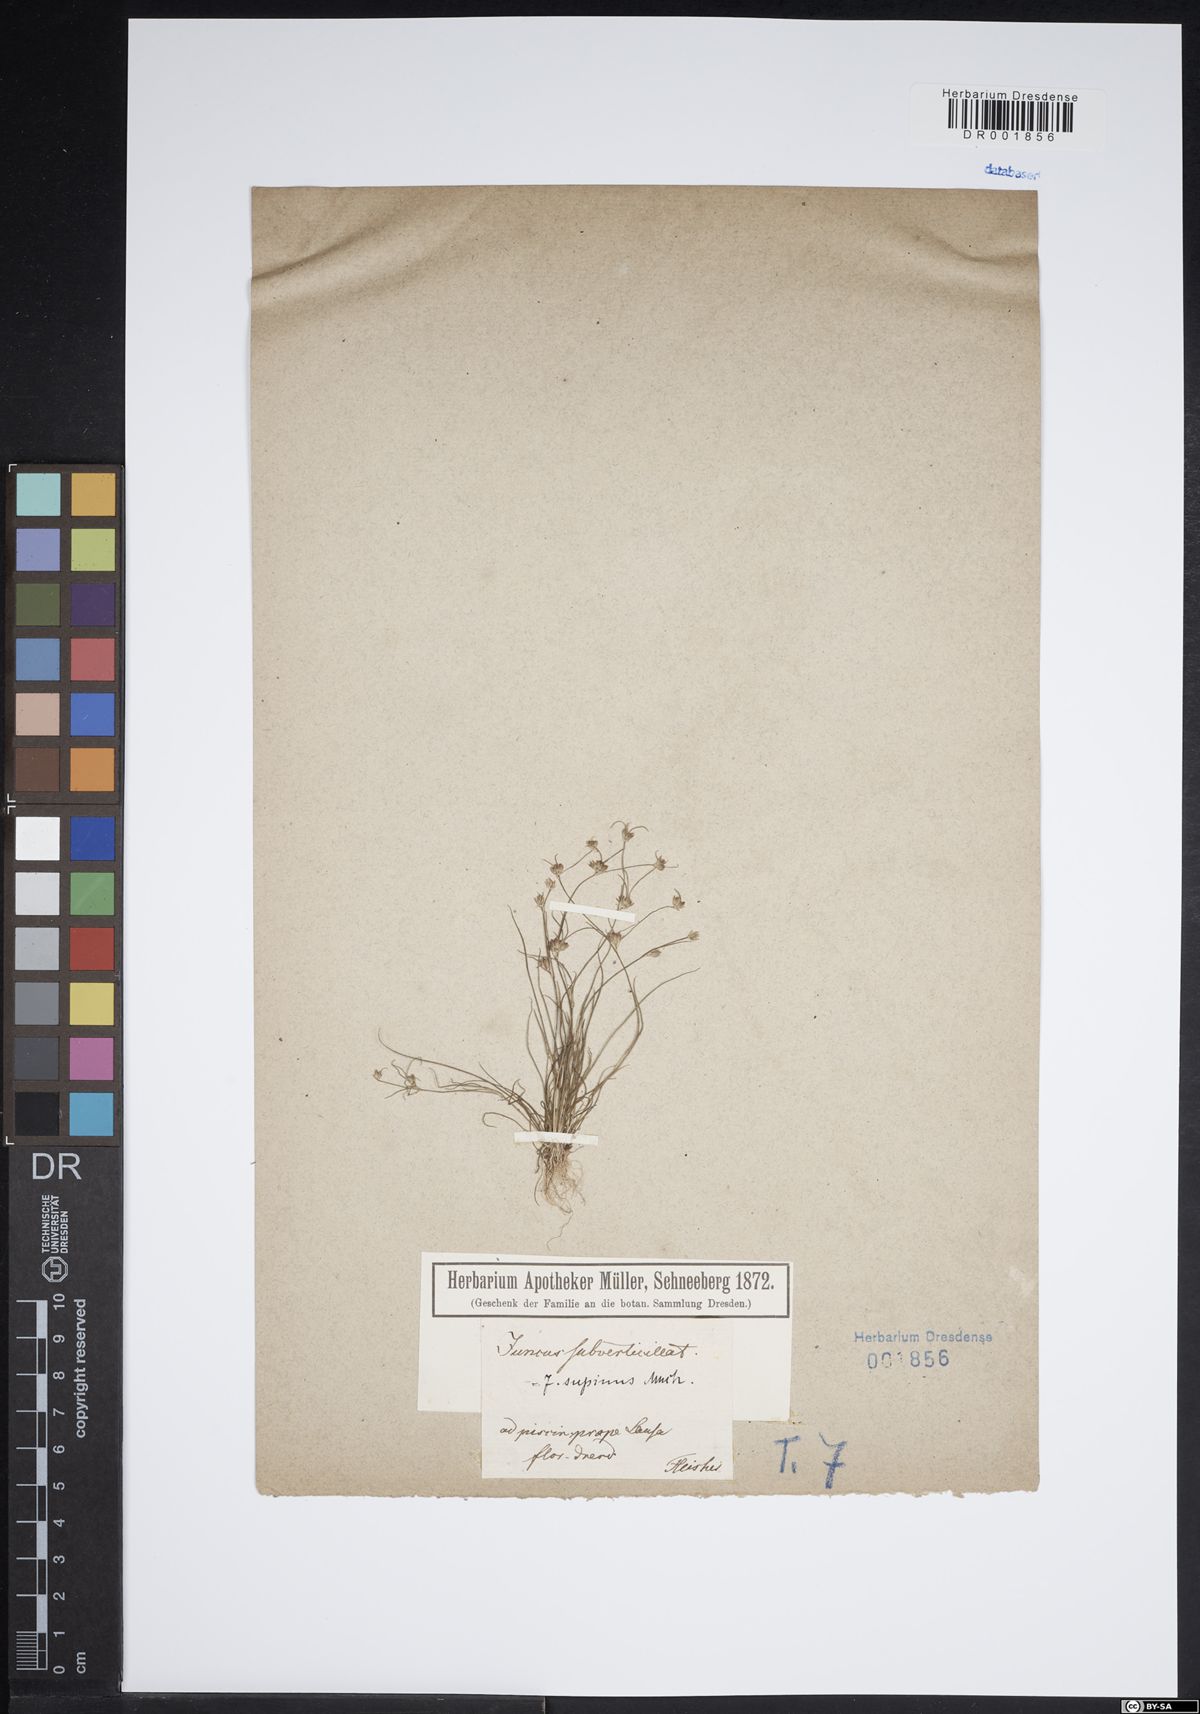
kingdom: Plantae
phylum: Tracheophyta
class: Liliopsida
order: Poales
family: Juncaceae
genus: Juncus
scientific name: Juncus bulbosus
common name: Bulbous rush
